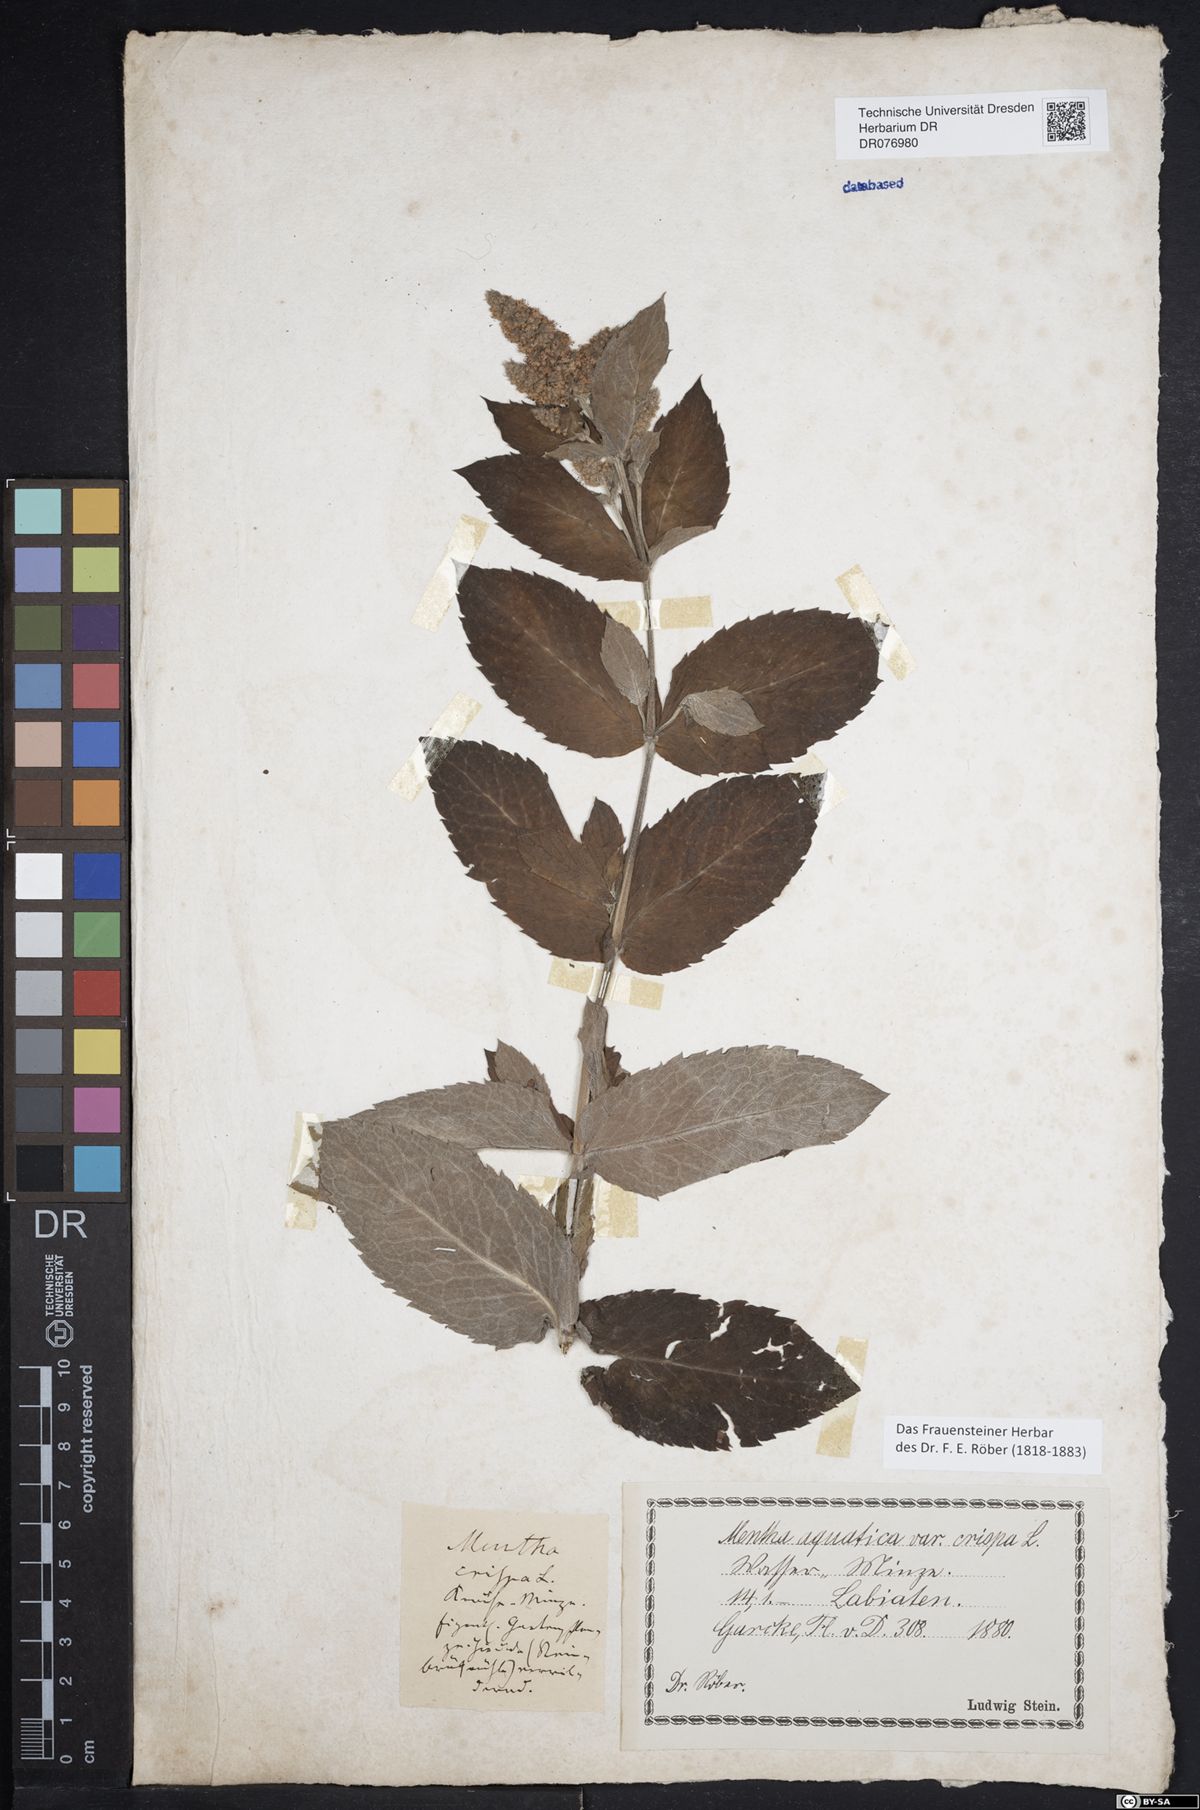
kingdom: Plantae
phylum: Tracheophyta
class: Magnoliopsida
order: Lamiales
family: Lamiaceae
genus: Mentha
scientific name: Mentha spicata
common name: Spearmint
